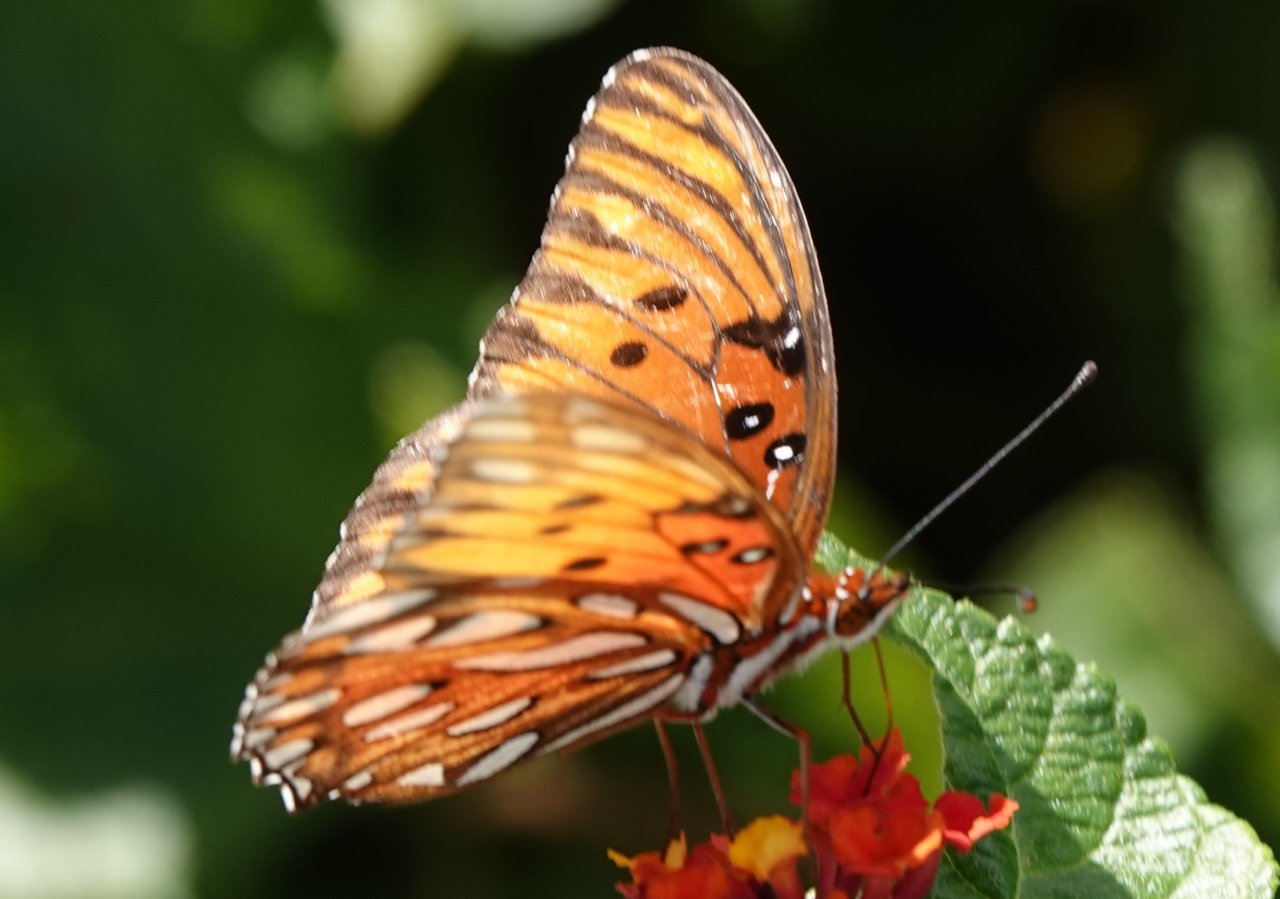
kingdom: Animalia
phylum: Arthropoda
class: Insecta
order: Lepidoptera
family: Nymphalidae
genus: Dione
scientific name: Dione vanillae
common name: Gulf Fritillary
